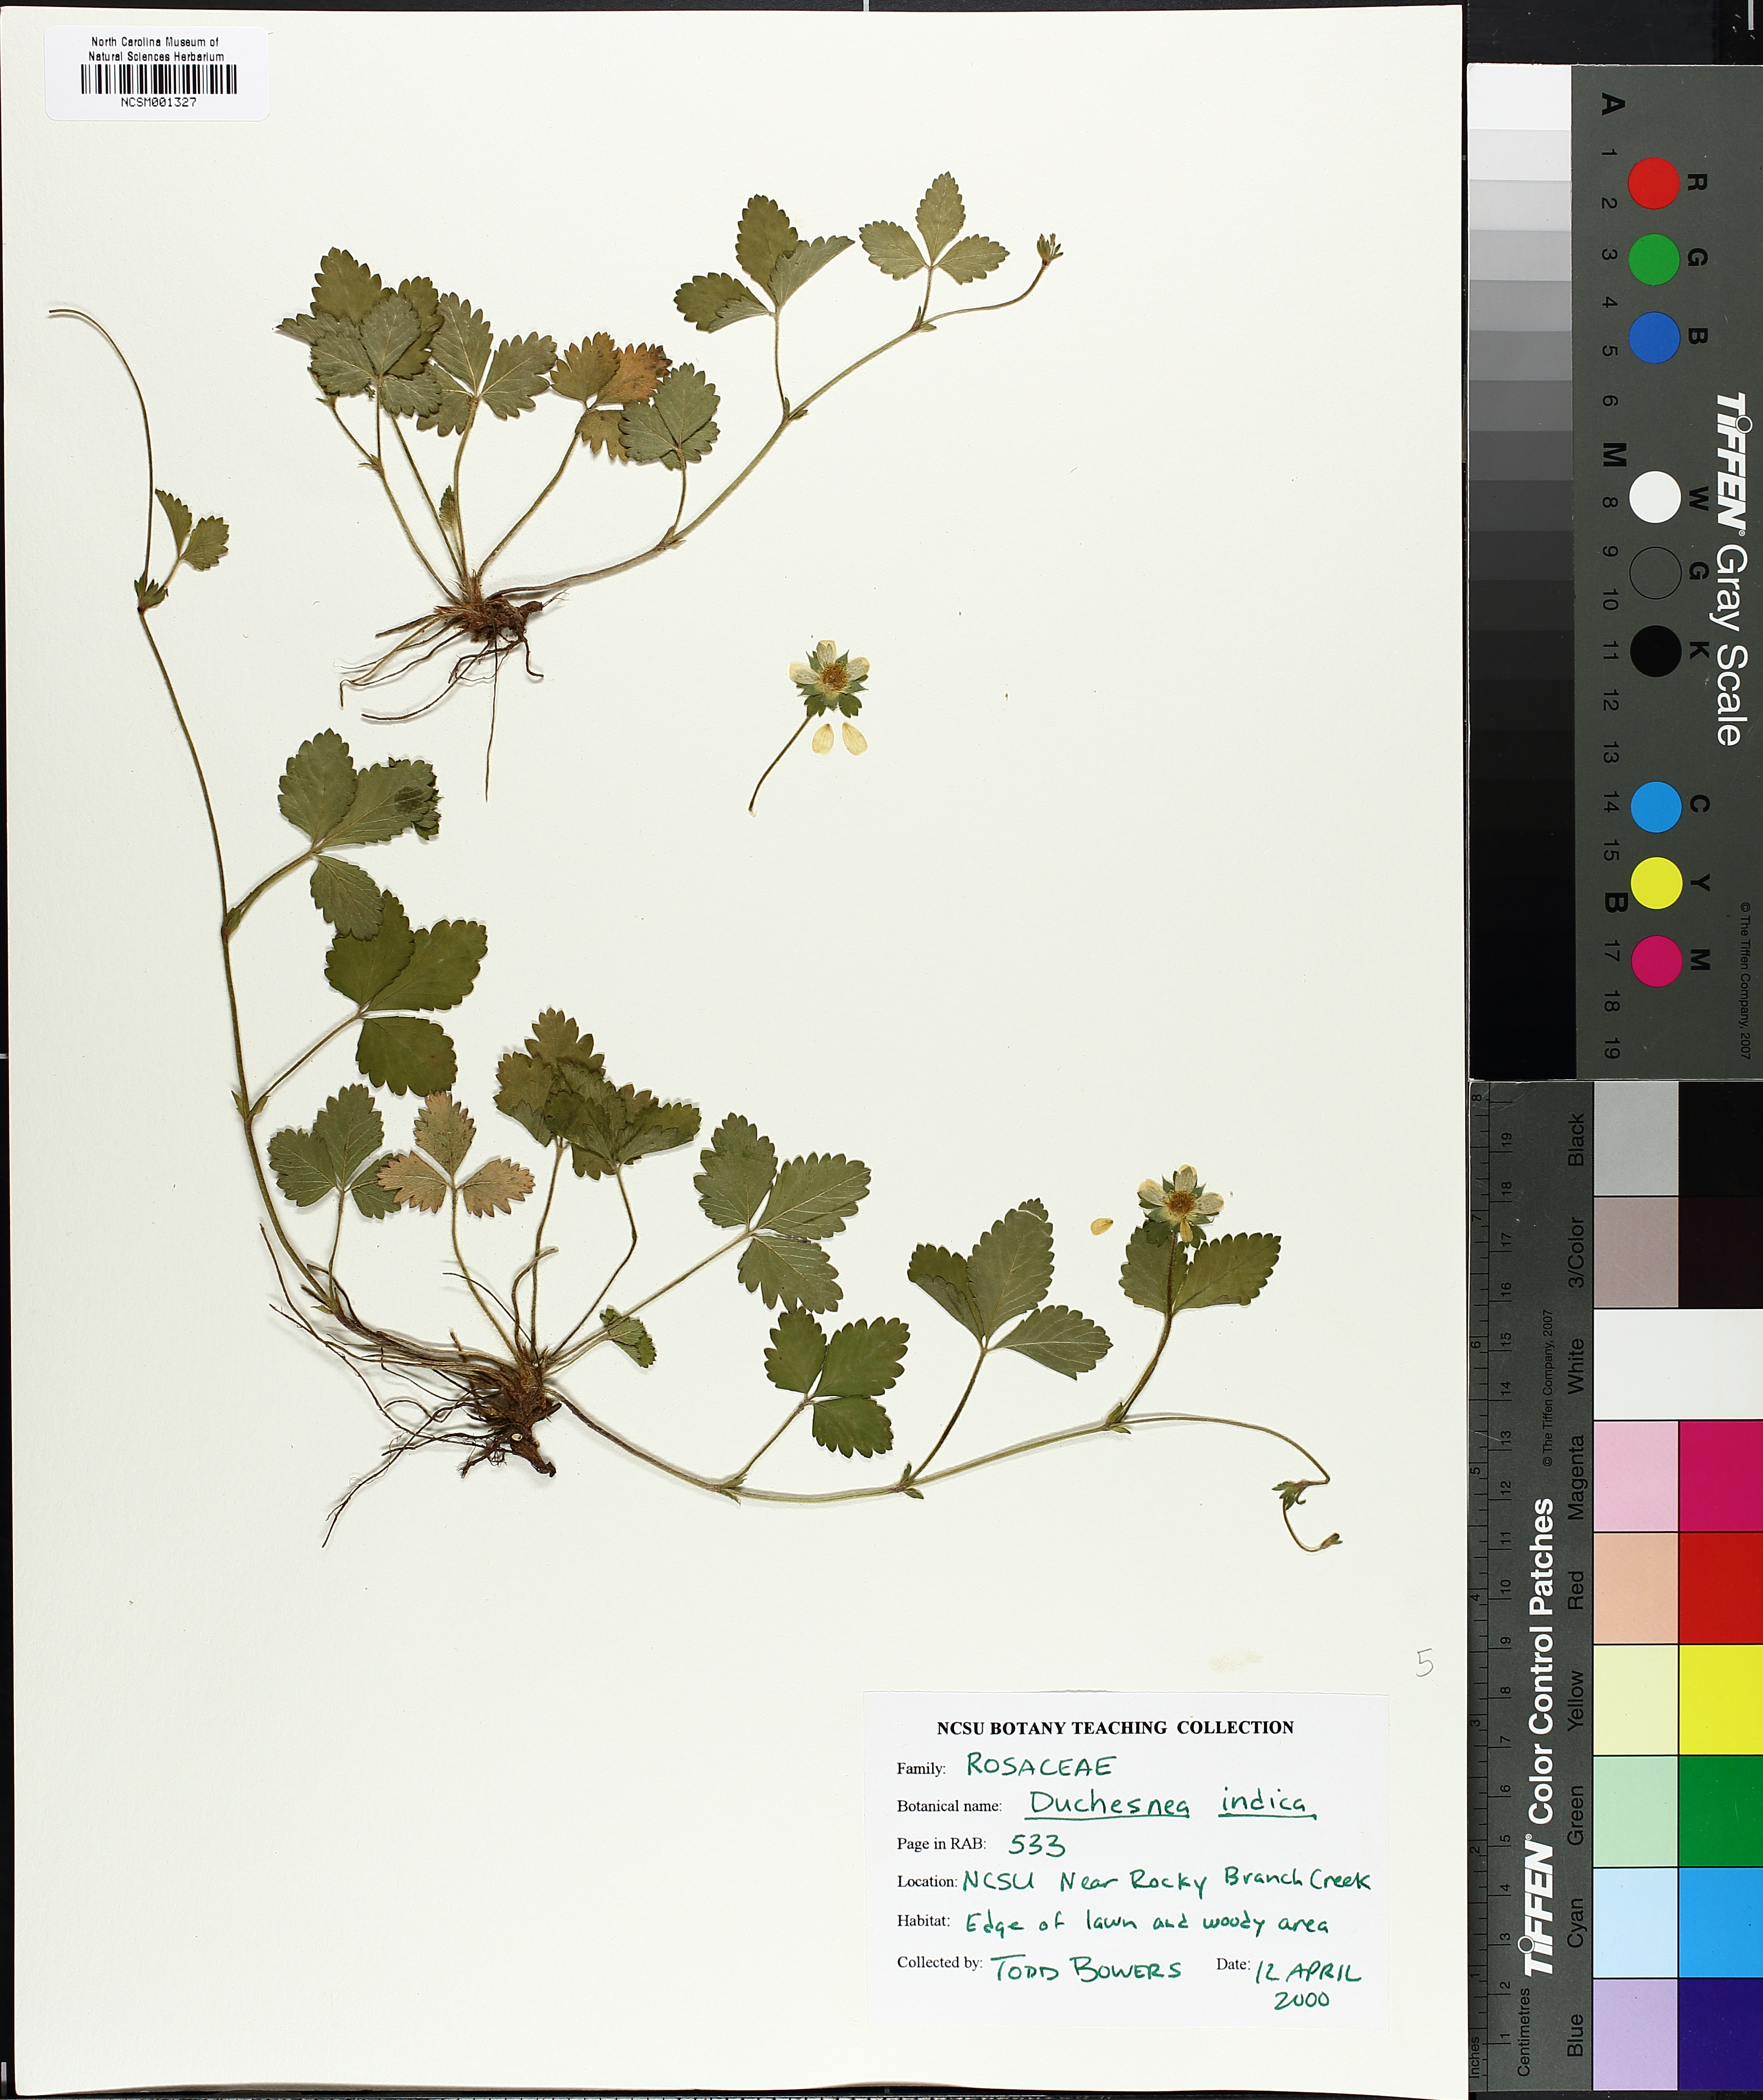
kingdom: Plantae
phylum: Tracheophyta
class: Magnoliopsida
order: Rosales
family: Rosaceae
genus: Potentilla
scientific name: Potentilla indica
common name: Yellow-flowered strawberry
